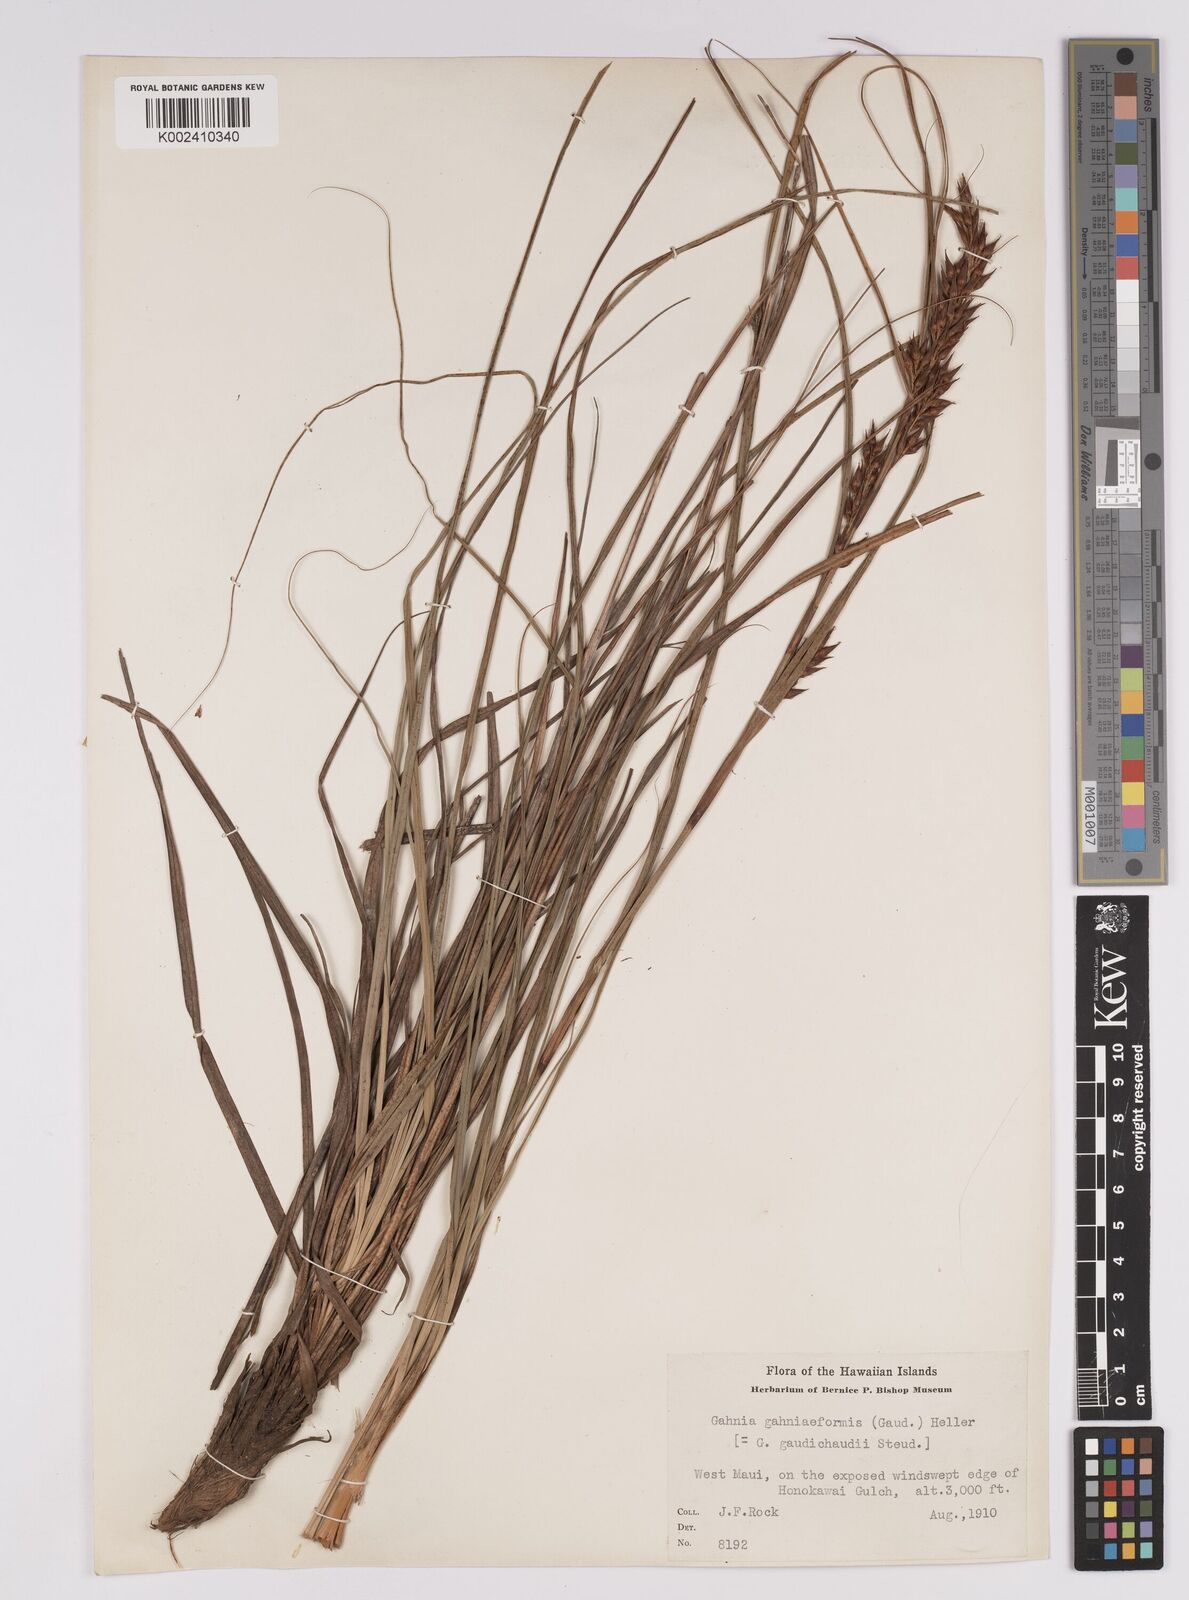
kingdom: Plantae
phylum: Tracheophyta
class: Liliopsida
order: Poales
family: Cyperaceae
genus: Morelotia
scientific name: Morelotia gahniiformis
